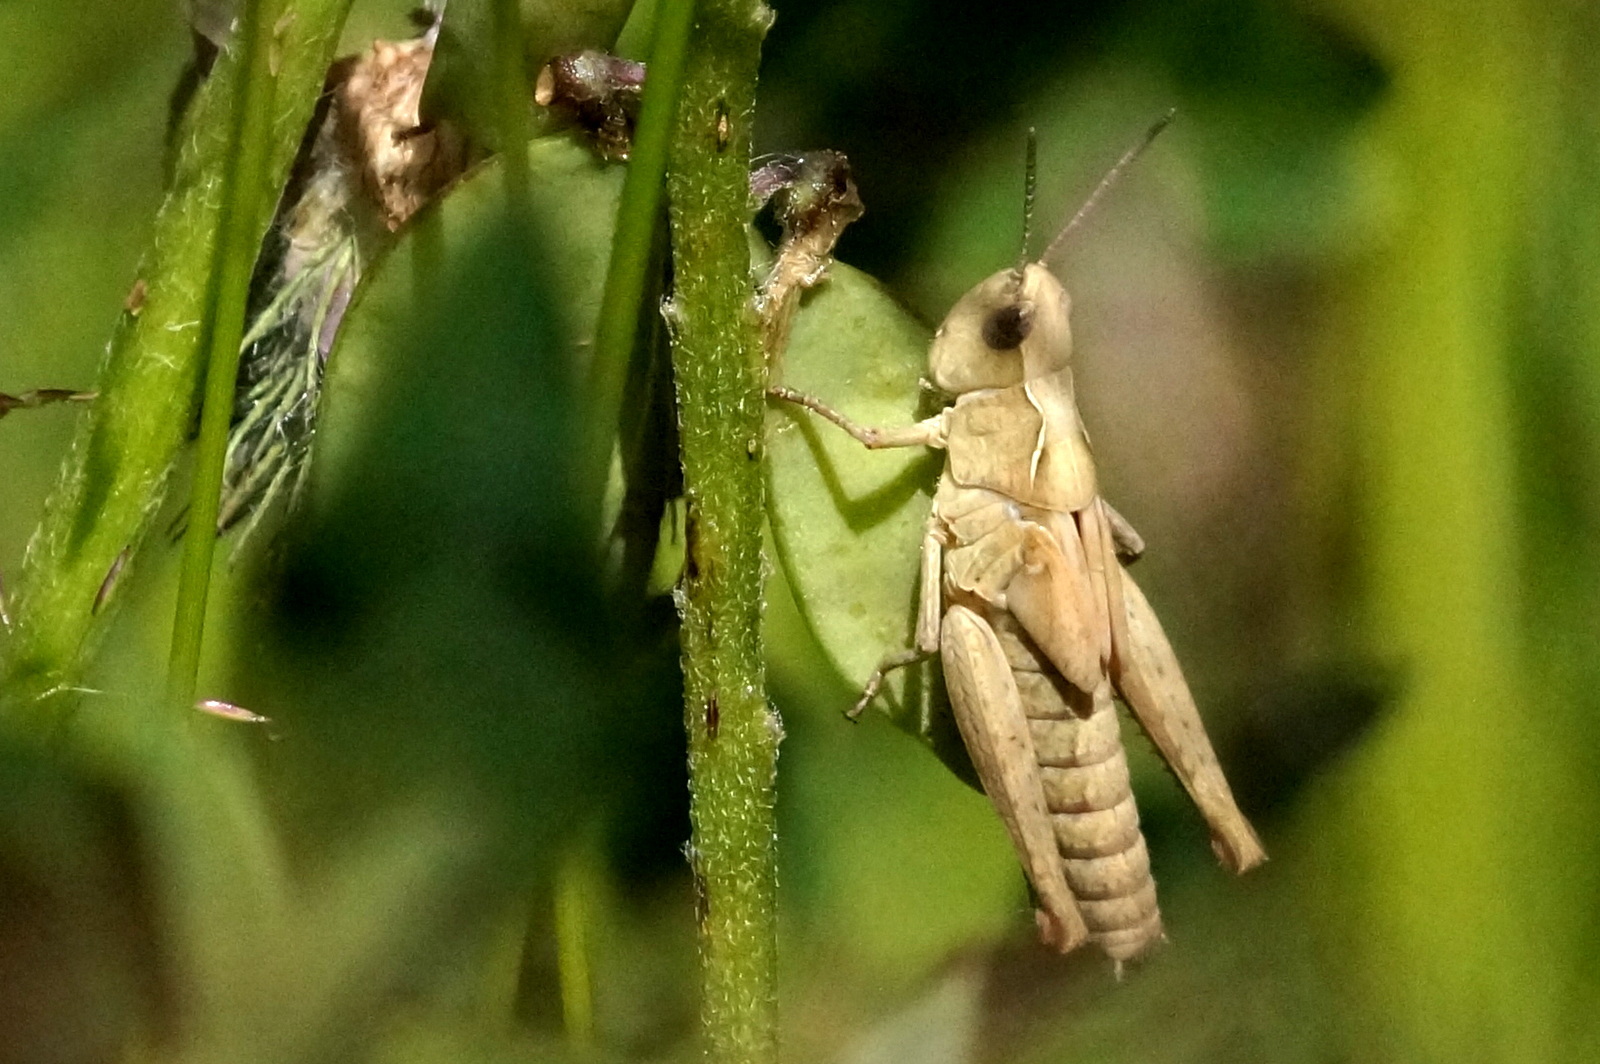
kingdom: Animalia
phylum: Arthropoda
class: Insecta
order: Orthoptera
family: Acrididae
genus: Chrysochraon
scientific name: Chrysochraon dispar
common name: Large gold grasshopper
